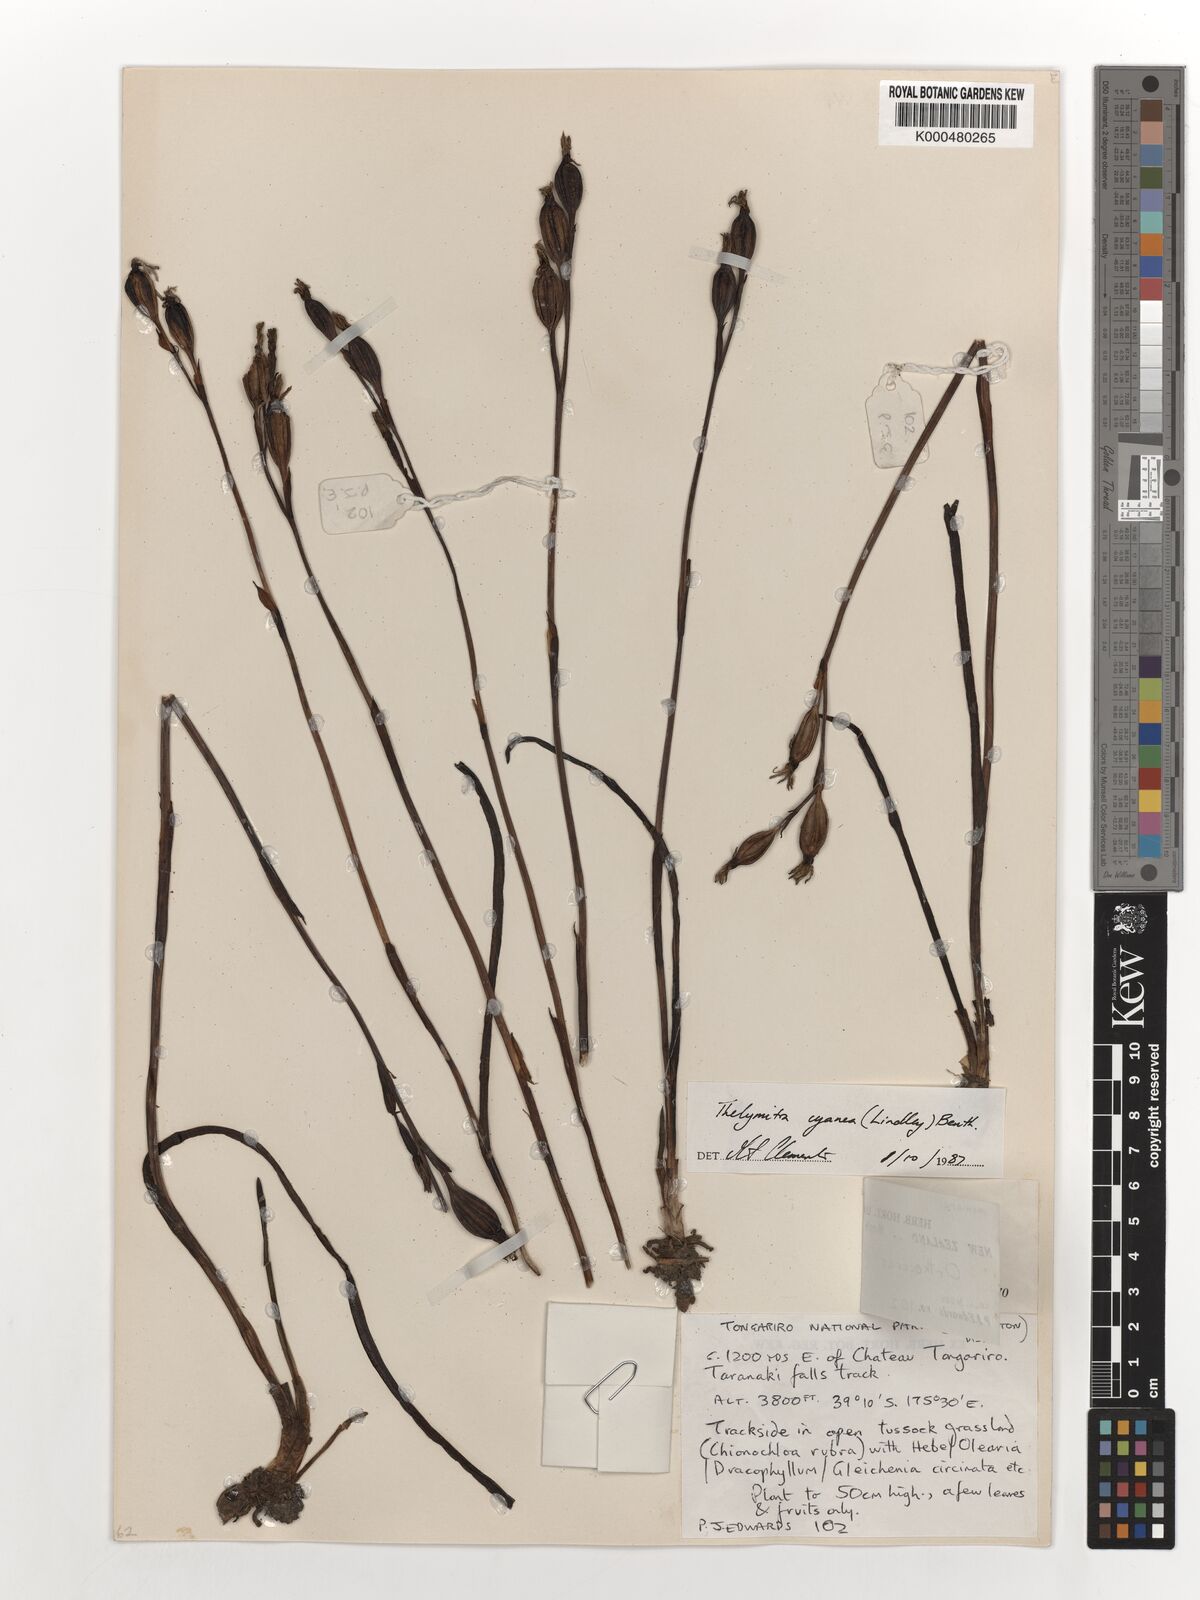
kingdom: Plantae
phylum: Tracheophyta
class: Liliopsida
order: Asparagales
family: Orchidaceae
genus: Thelymitra
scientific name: Thelymitra cyanea
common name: Blue sun-orchid
